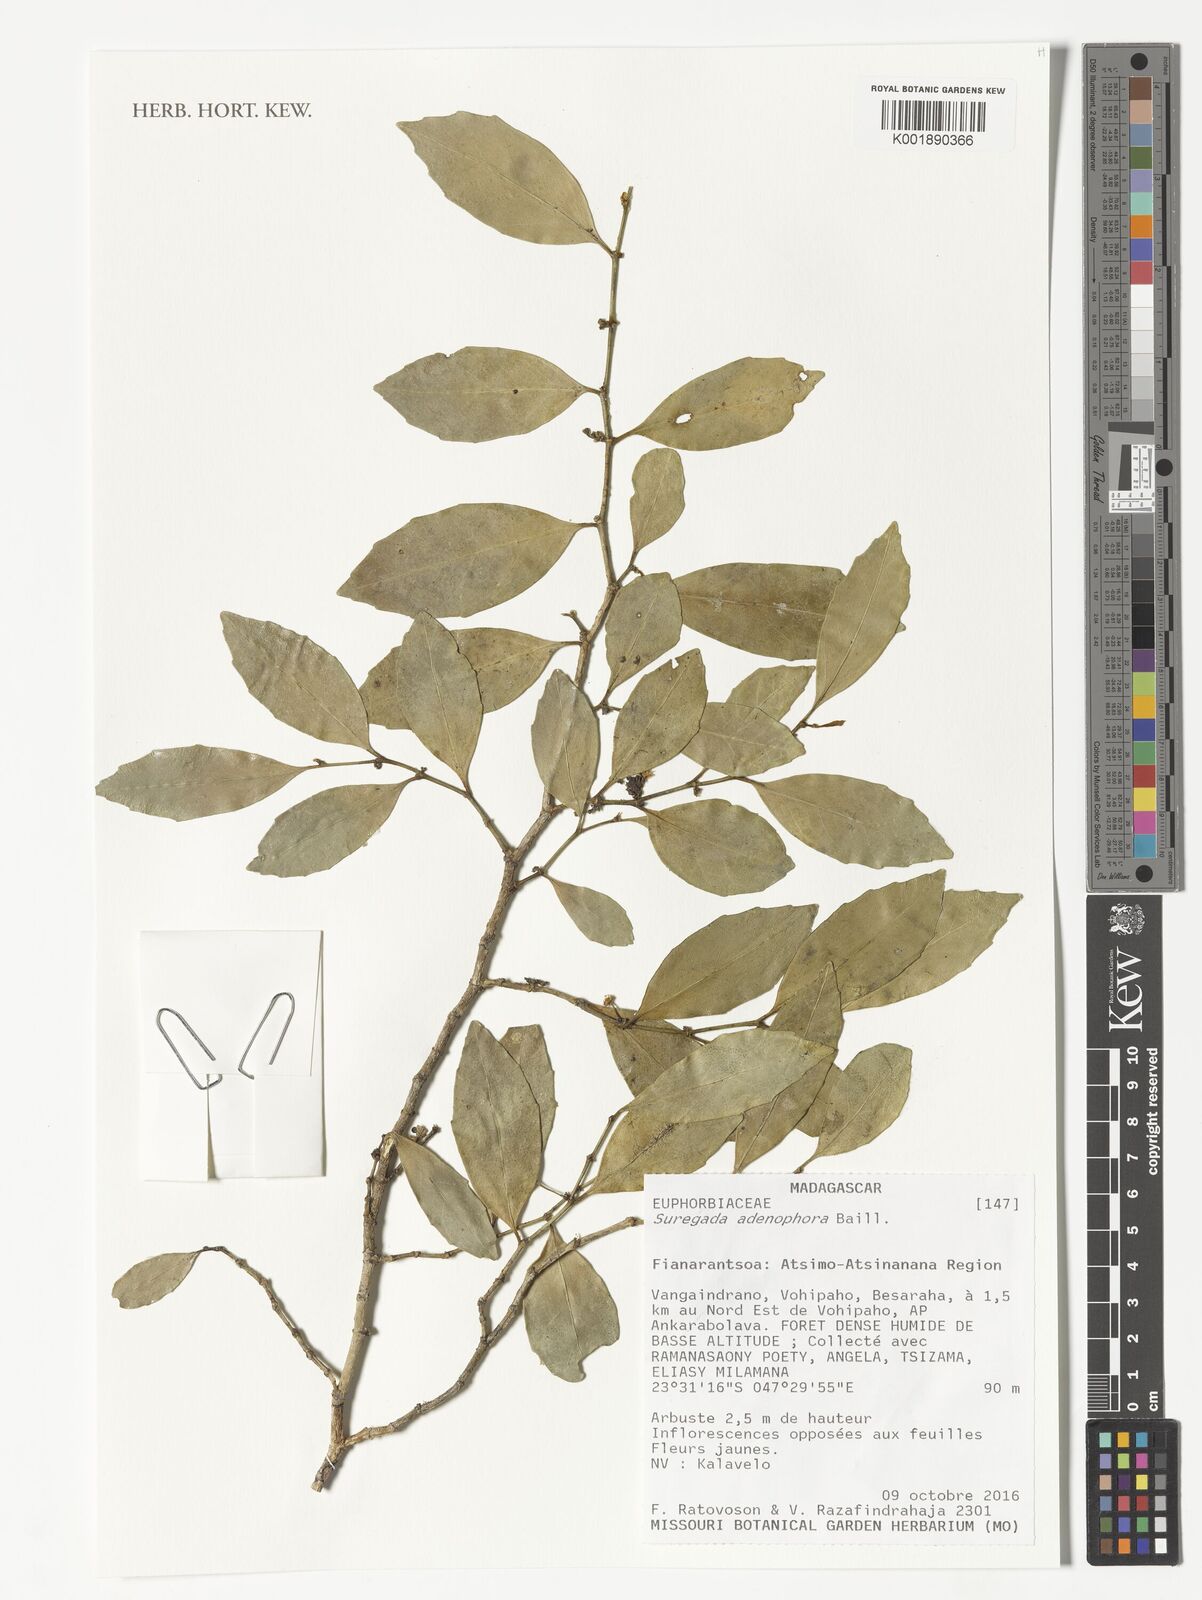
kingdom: Plantae
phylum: Tracheophyta
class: Magnoliopsida
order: Malpighiales
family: Euphorbiaceae
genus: Suregada
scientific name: Suregada adenophora
